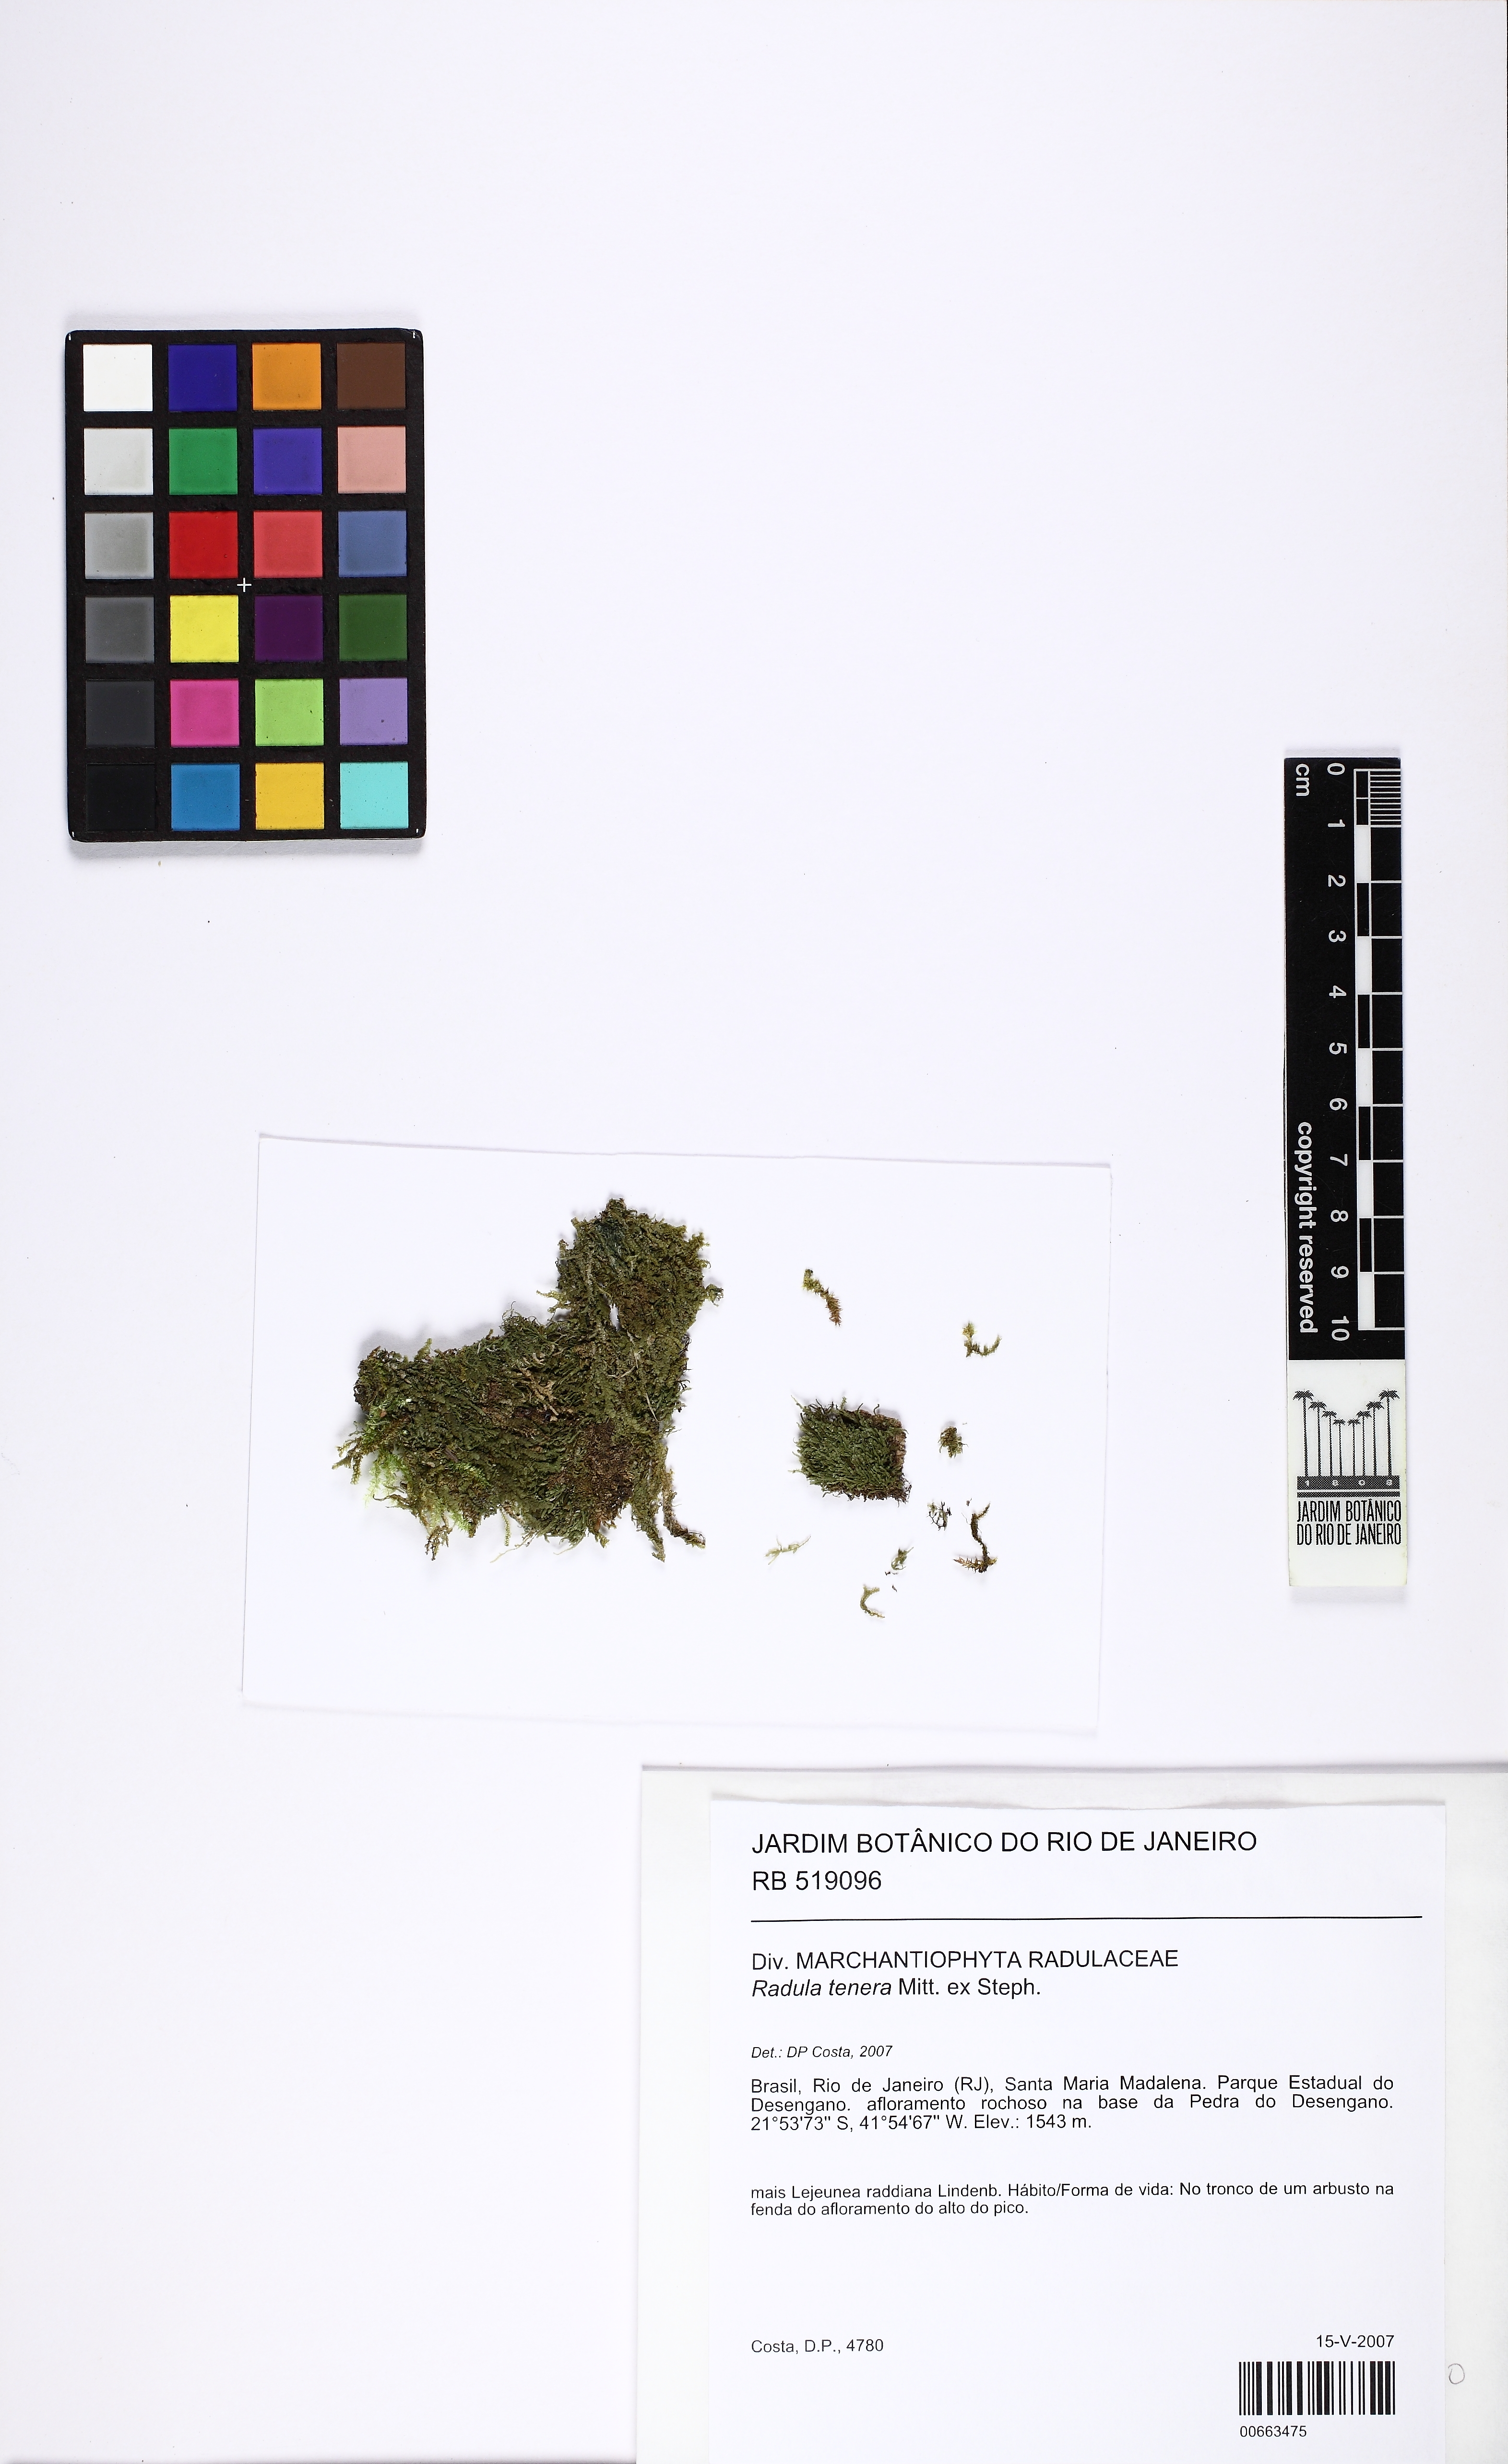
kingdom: Plantae
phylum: Marchantiophyta
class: Jungermanniopsida
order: Porellales
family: Radulaceae
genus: Radula
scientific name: Radula subinflata
